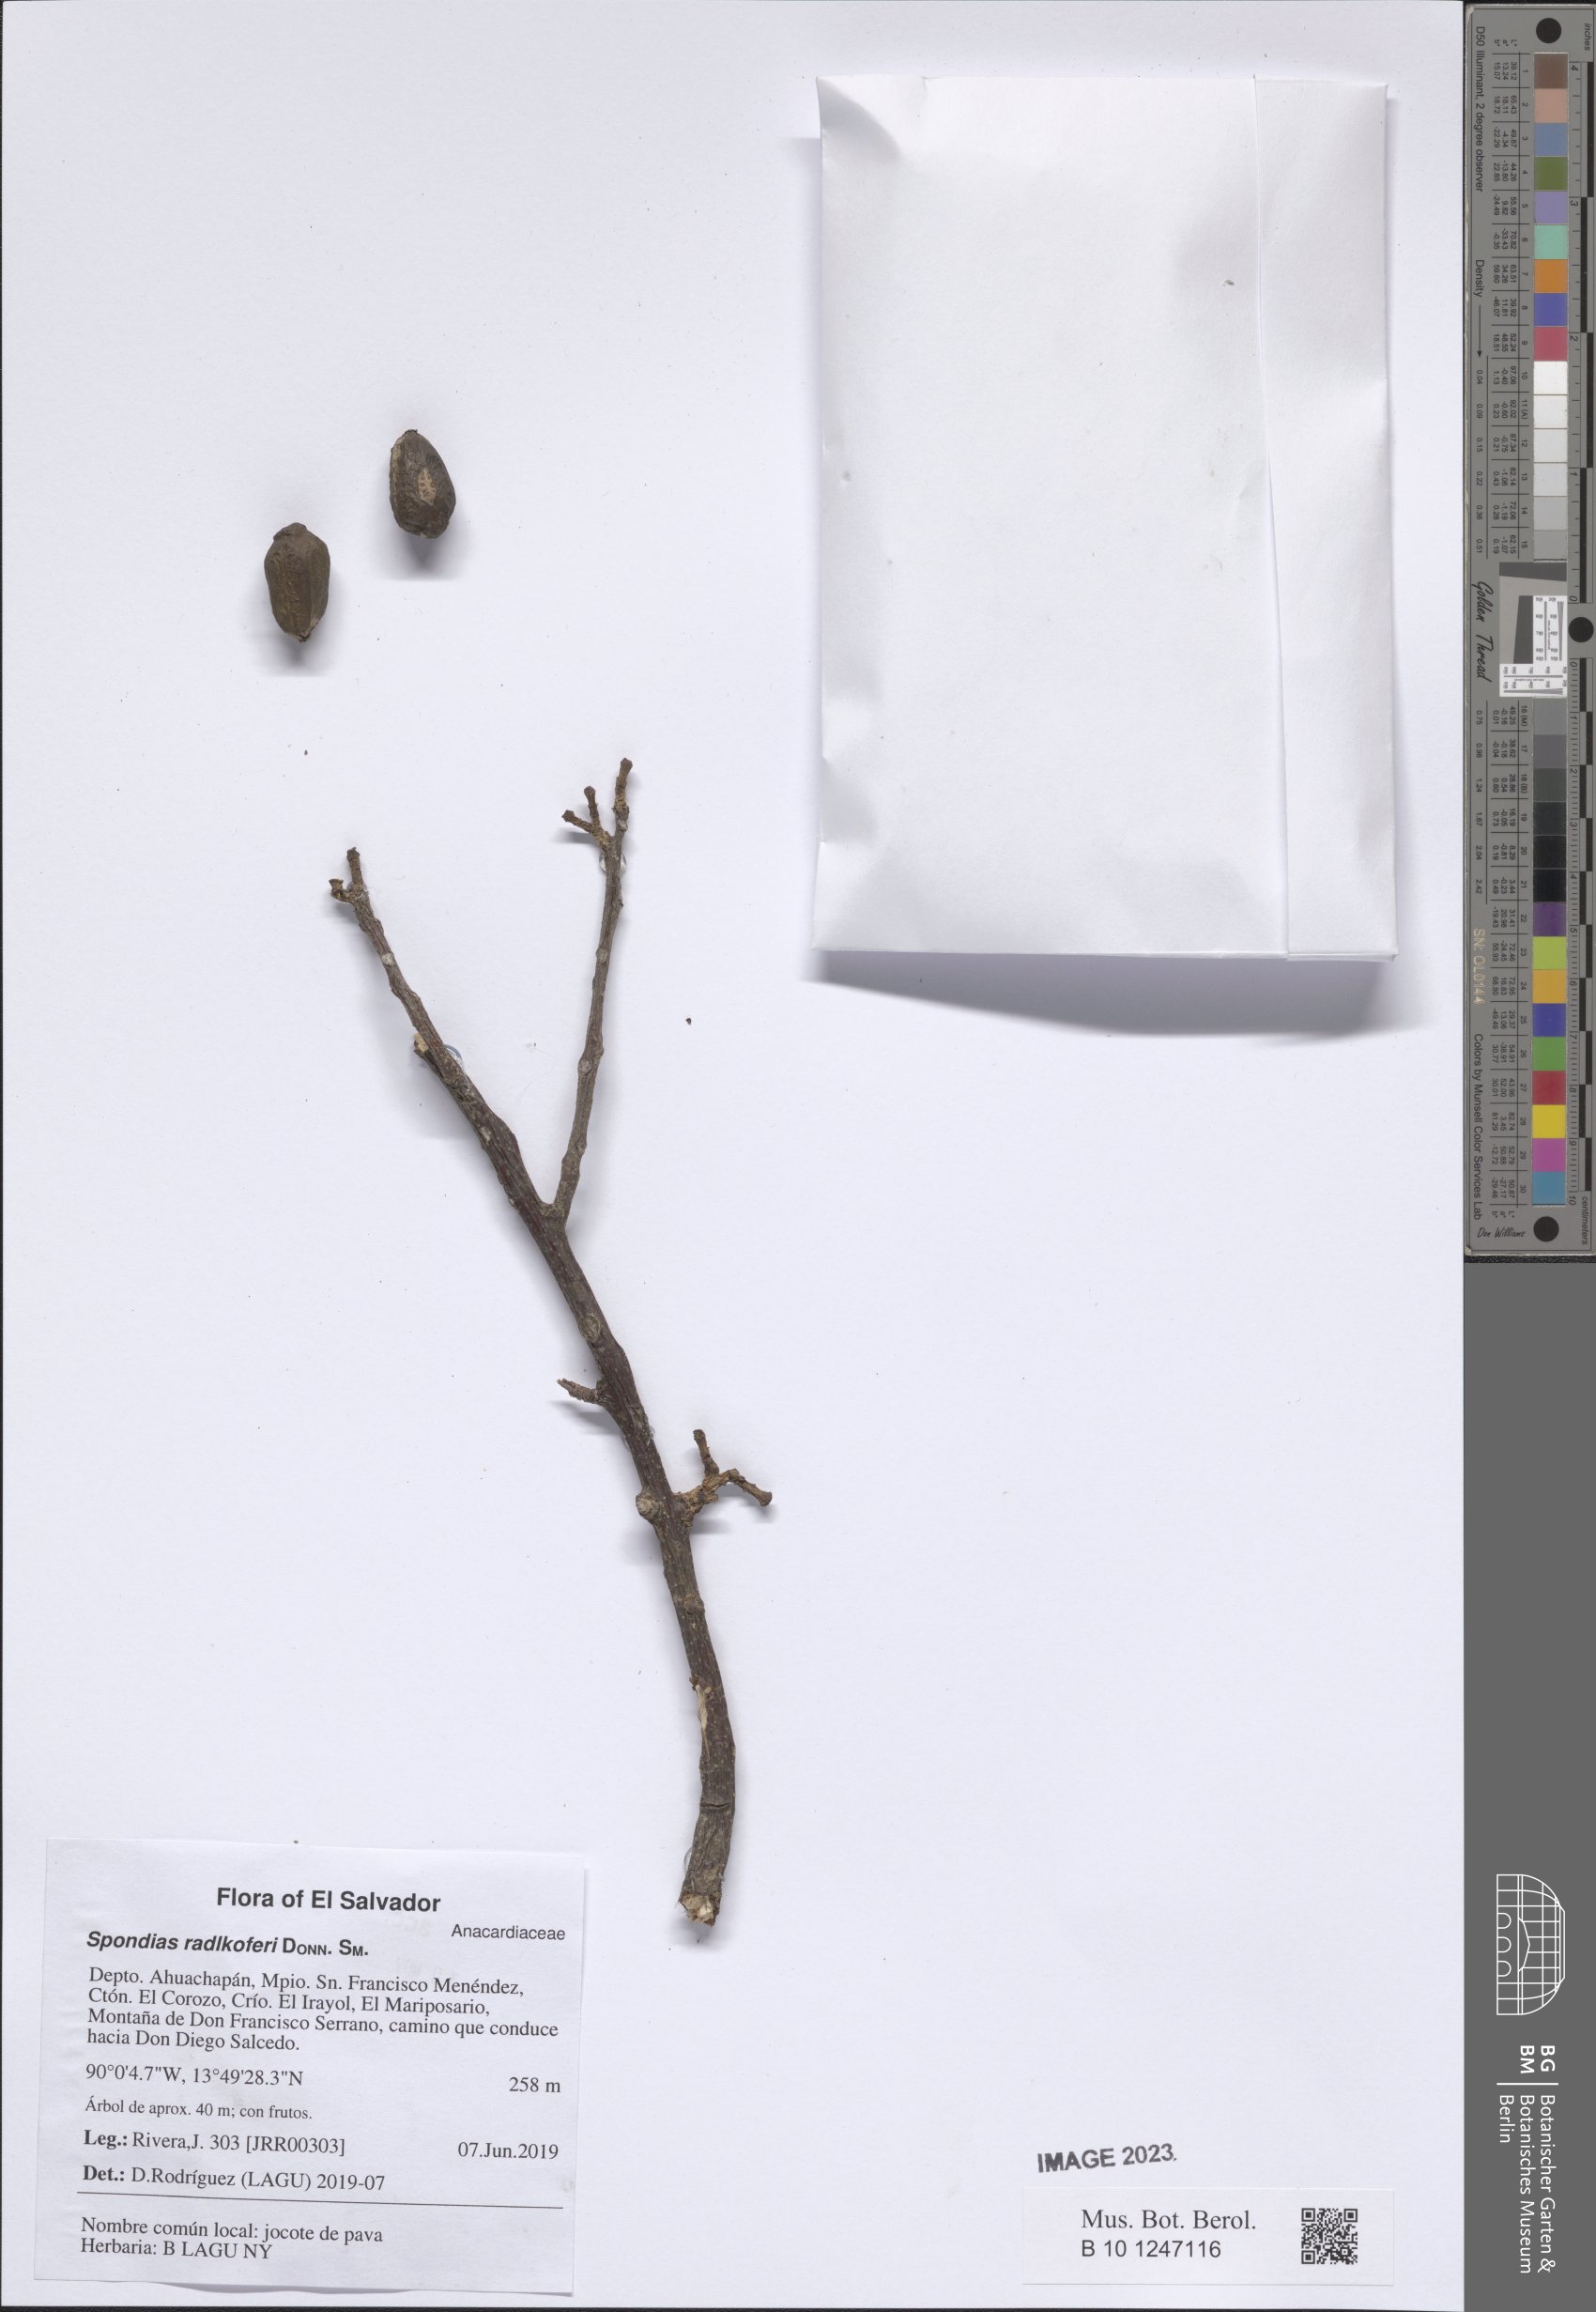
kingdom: Plantae
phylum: Tracheophyta
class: Magnoliopsida
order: Sapindales
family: Anacardiaceae
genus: Spondias
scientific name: Spondias radlkoferi
